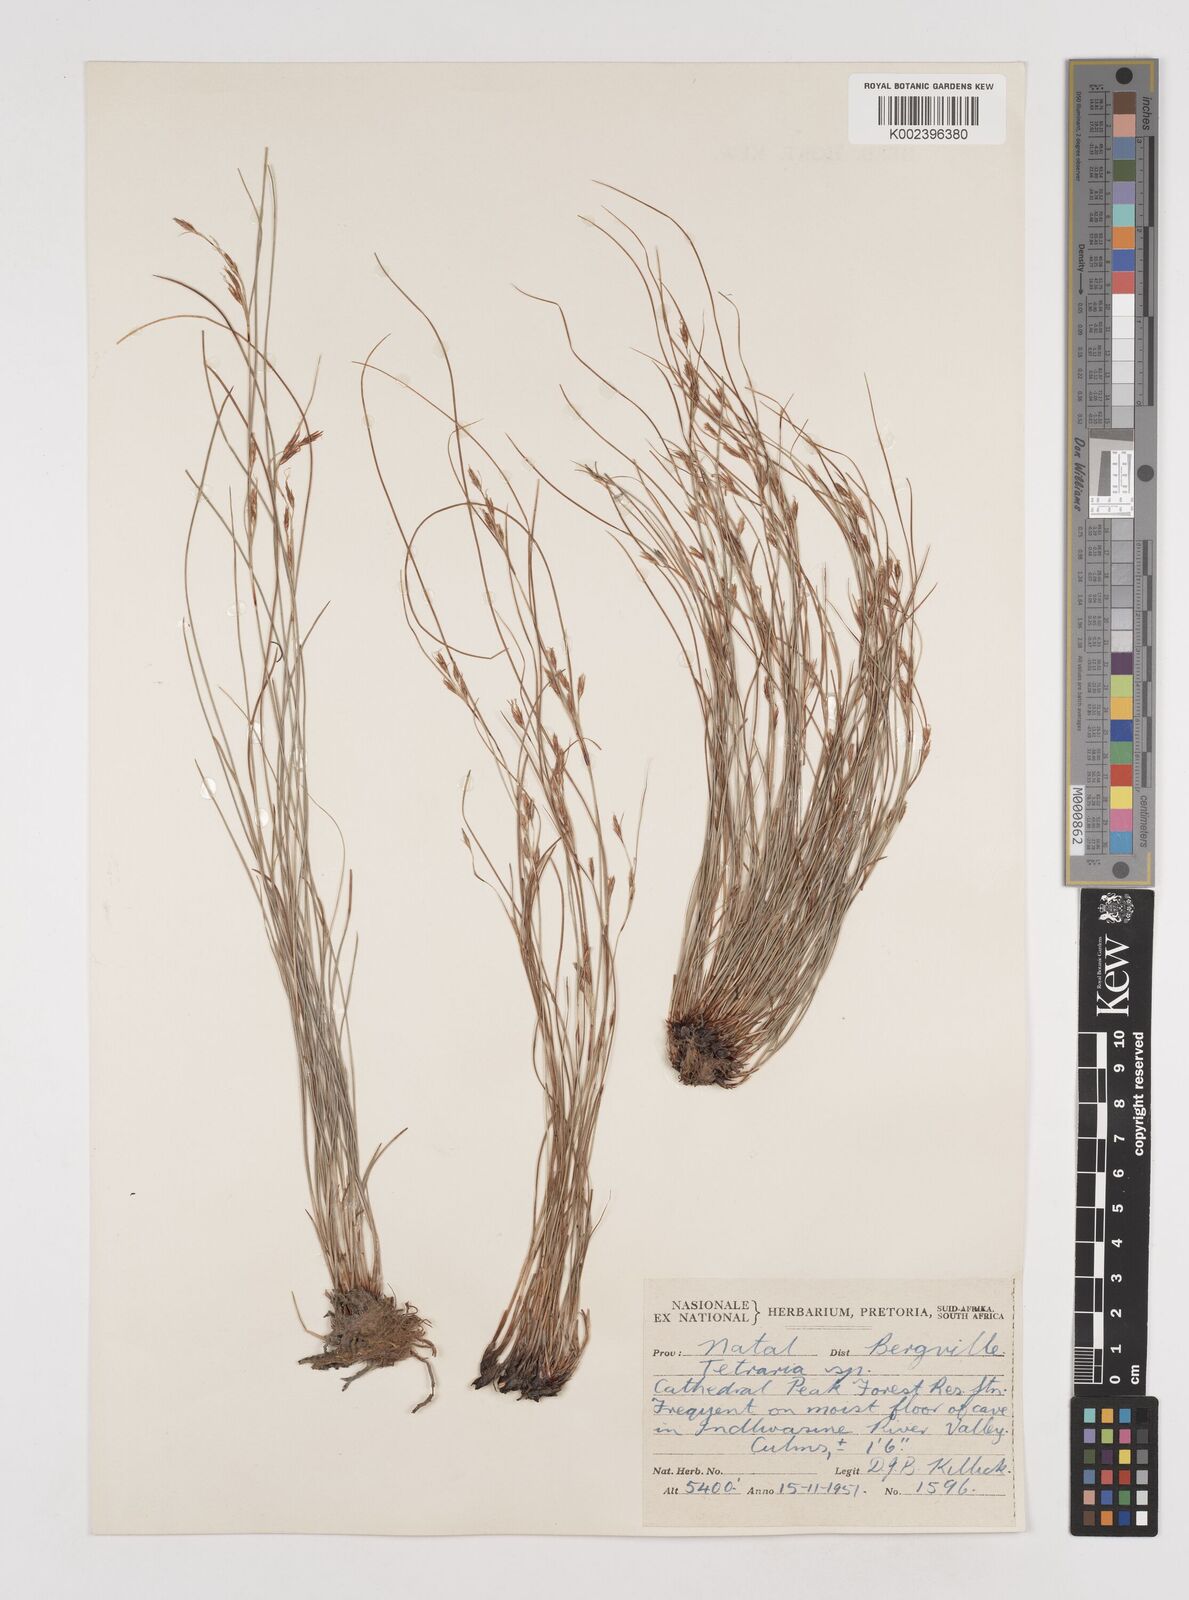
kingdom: Plantae
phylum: Tracheophyta
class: Liliopsida
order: Poales
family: Cyperaceae
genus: Tetraria
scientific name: Tetraria
